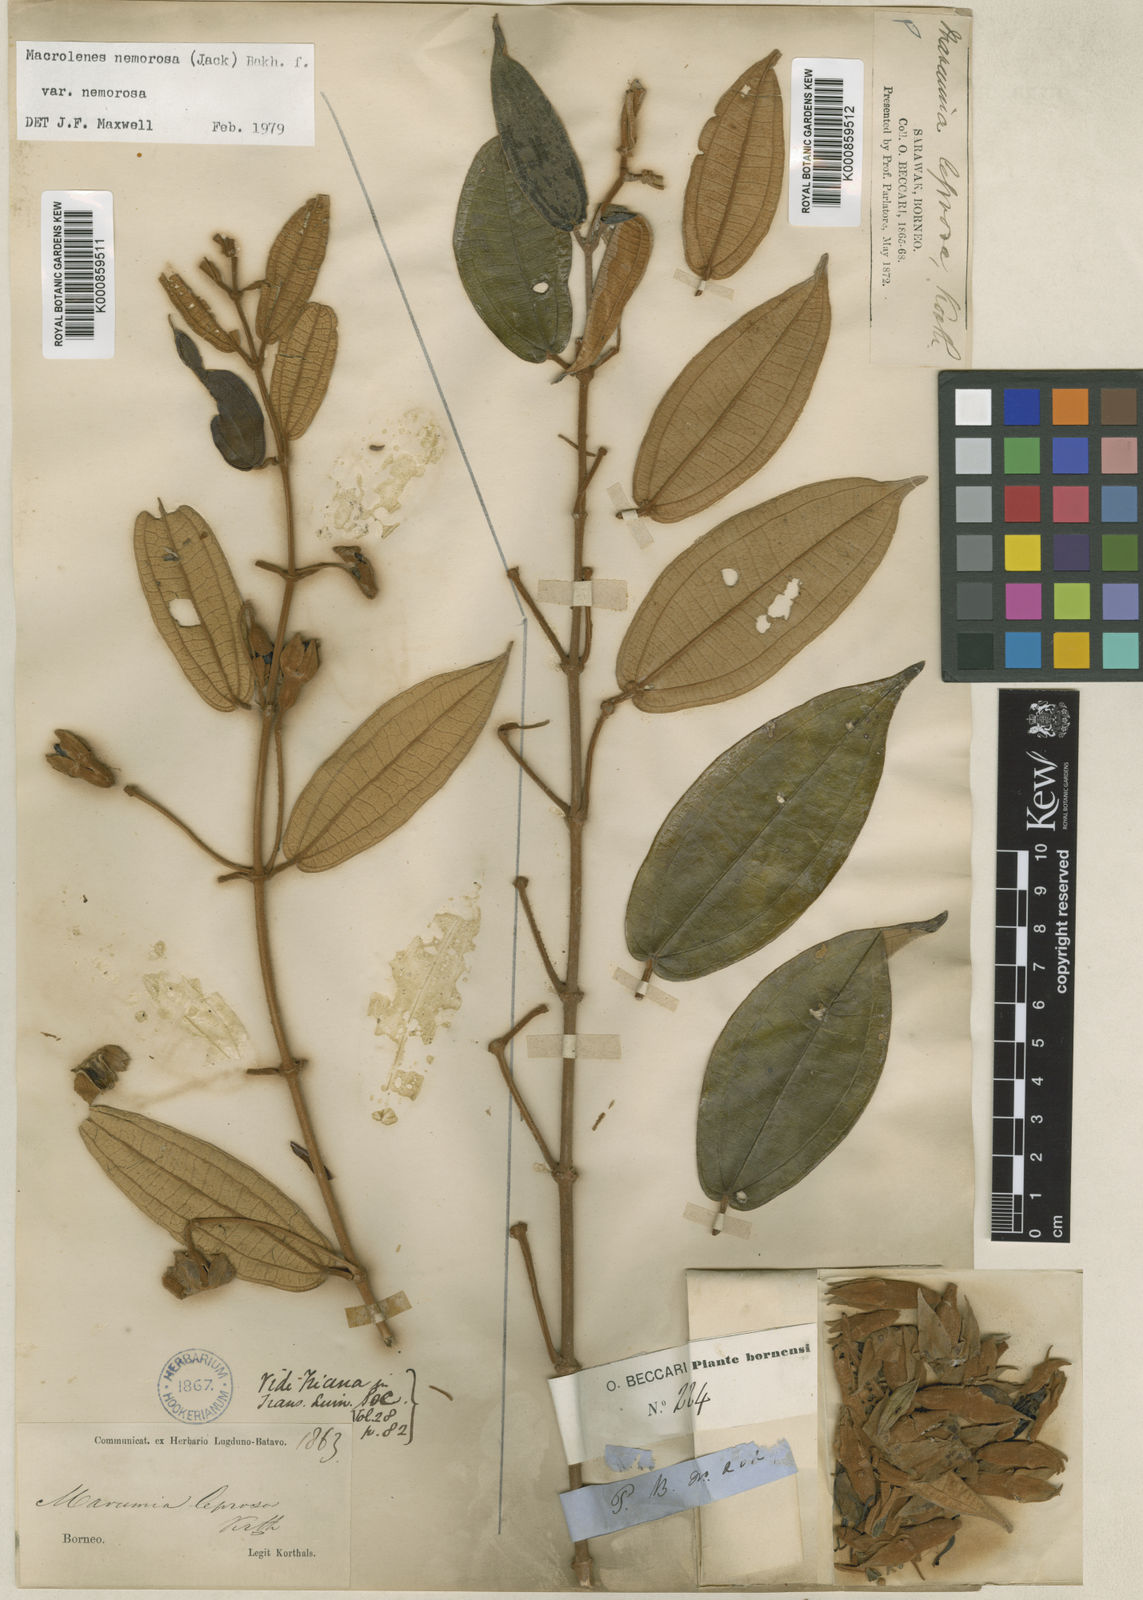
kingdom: Plantae
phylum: Tracheophyta
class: Magnoliopsida
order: Myrtales
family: Melastomataceae
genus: Macrolenes
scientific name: Macrolenes nemorosa
